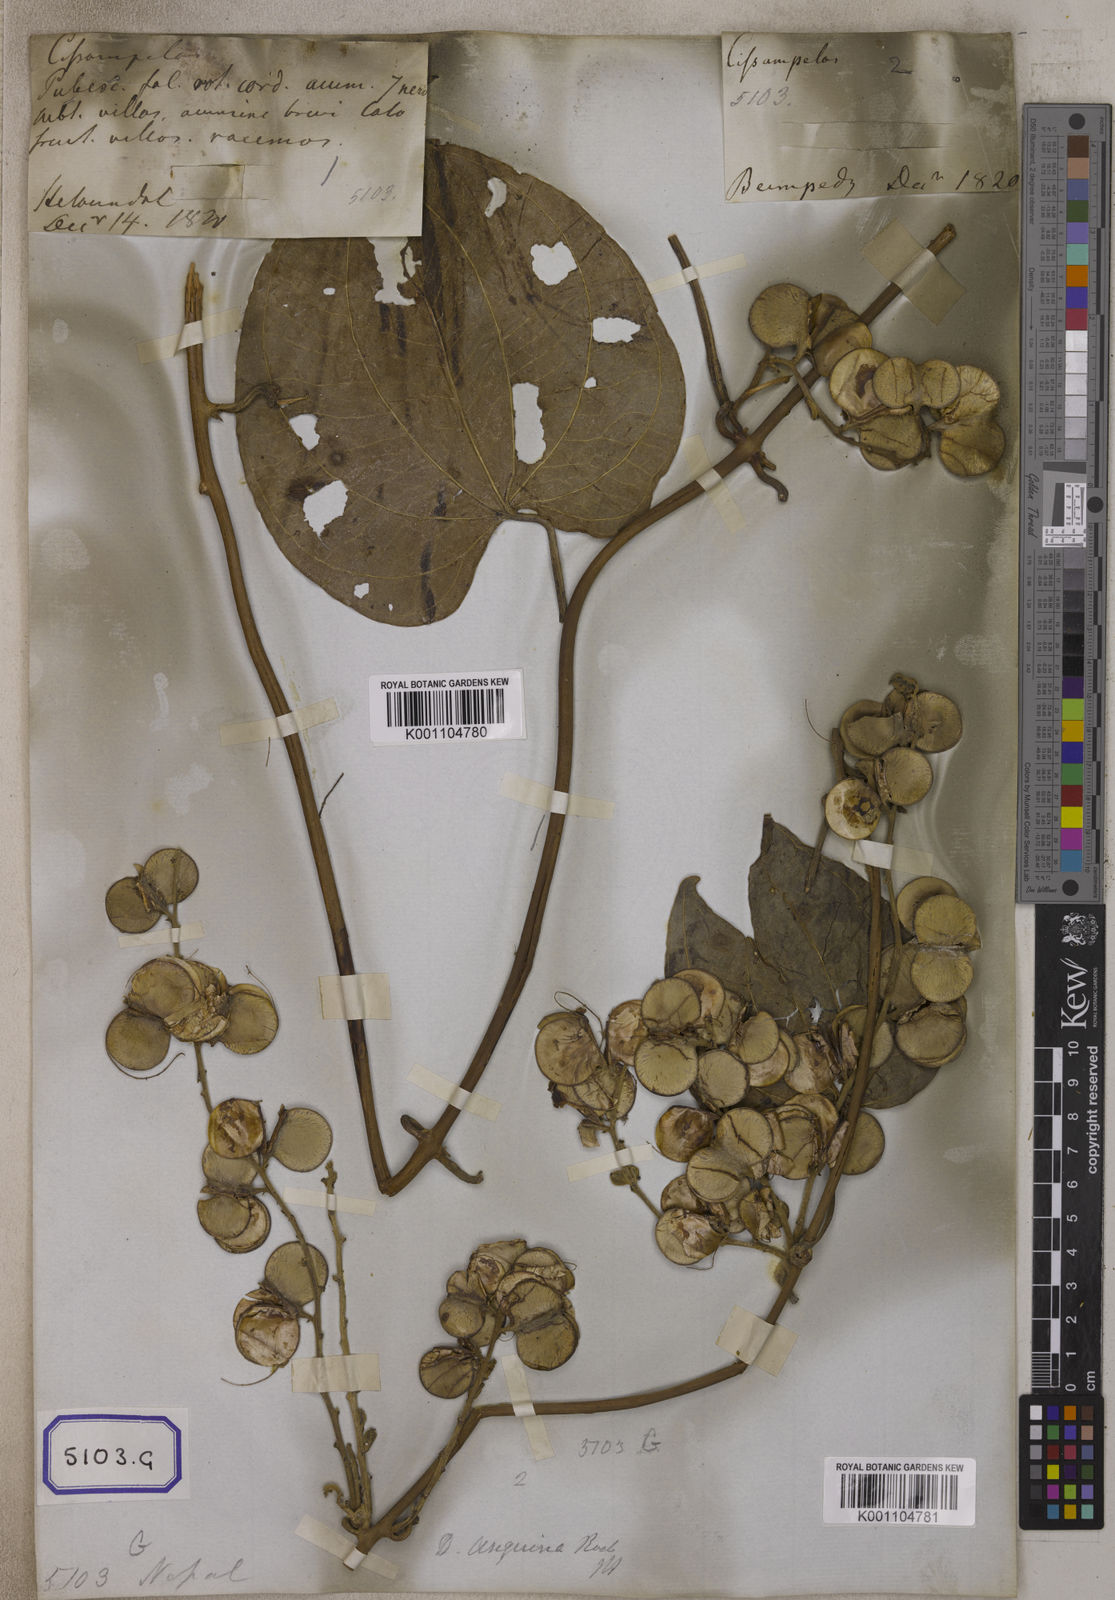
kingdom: Plantae
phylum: Tracheophyta
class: Liliopsida
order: Dioscoreales
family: Dioscoreaceae
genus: Dioscorea
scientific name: Dioscorea
